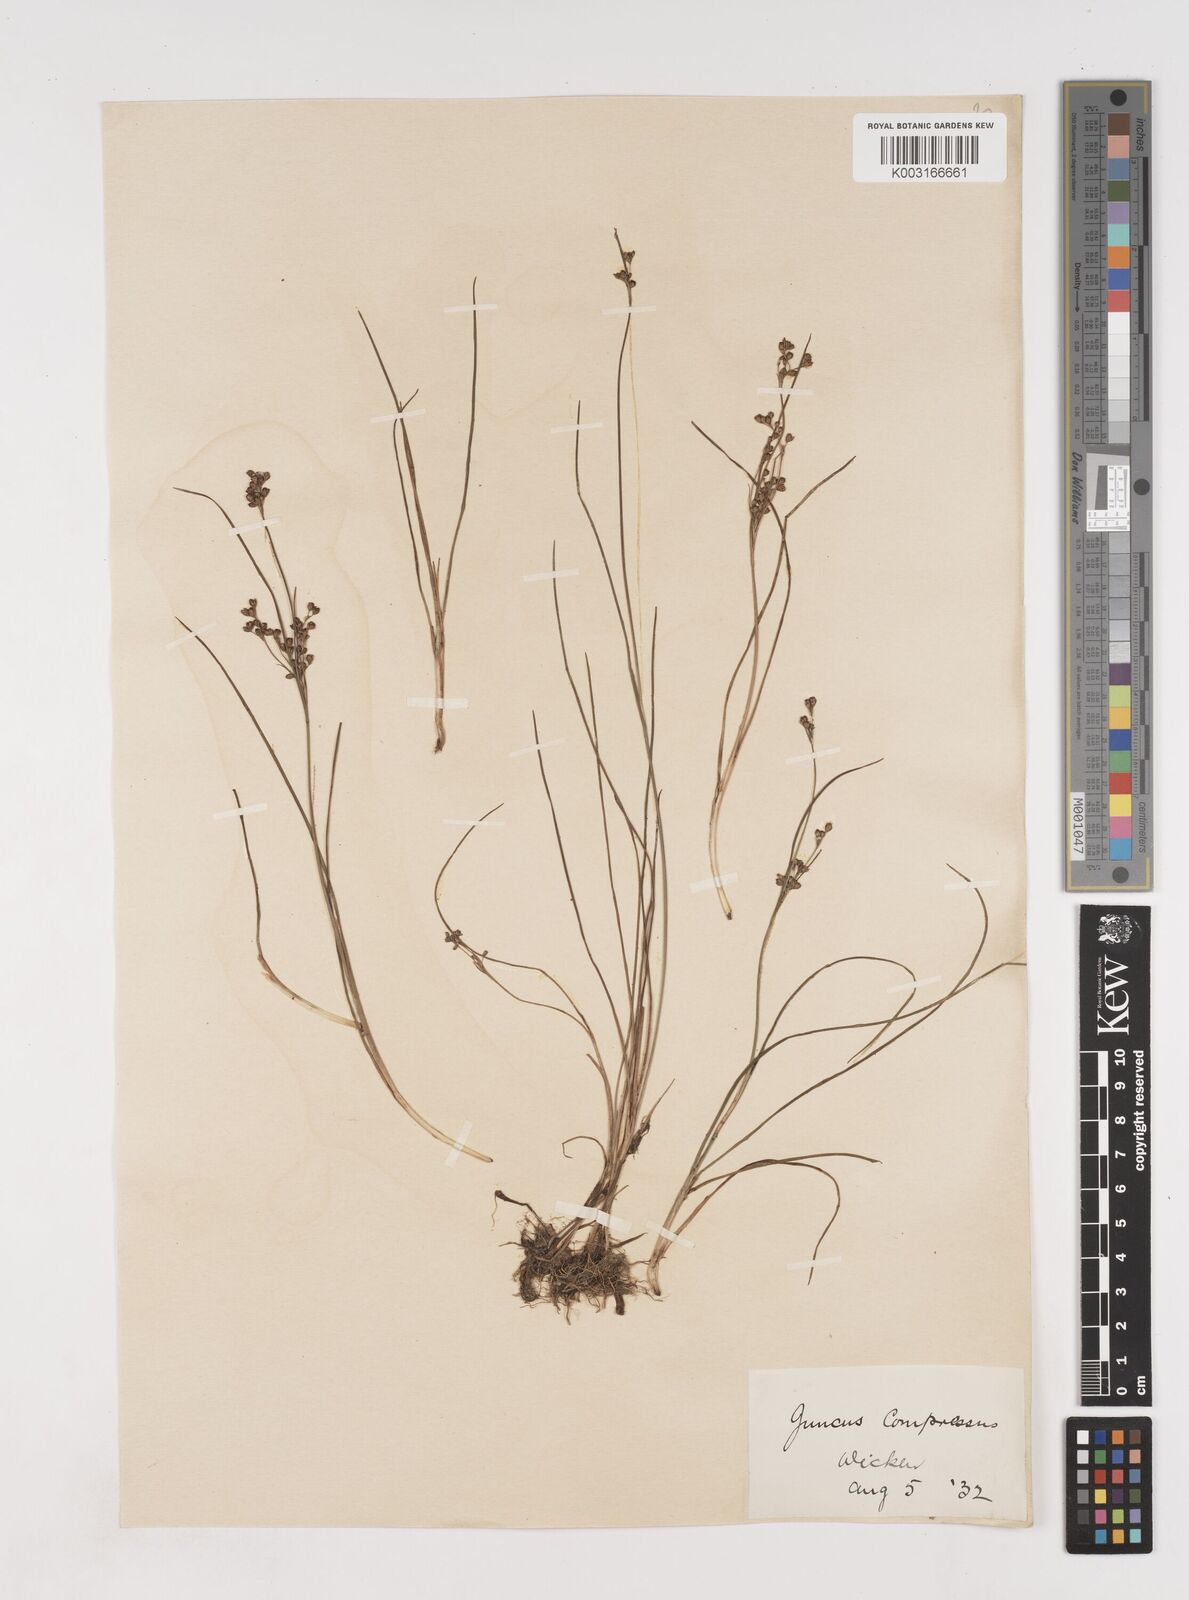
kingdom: Plantae
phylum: Tracheophyta
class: Liliopsida
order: Poales
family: Juncaceae
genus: Juncus
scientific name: Juncus compressus
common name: Round-fruited rush
